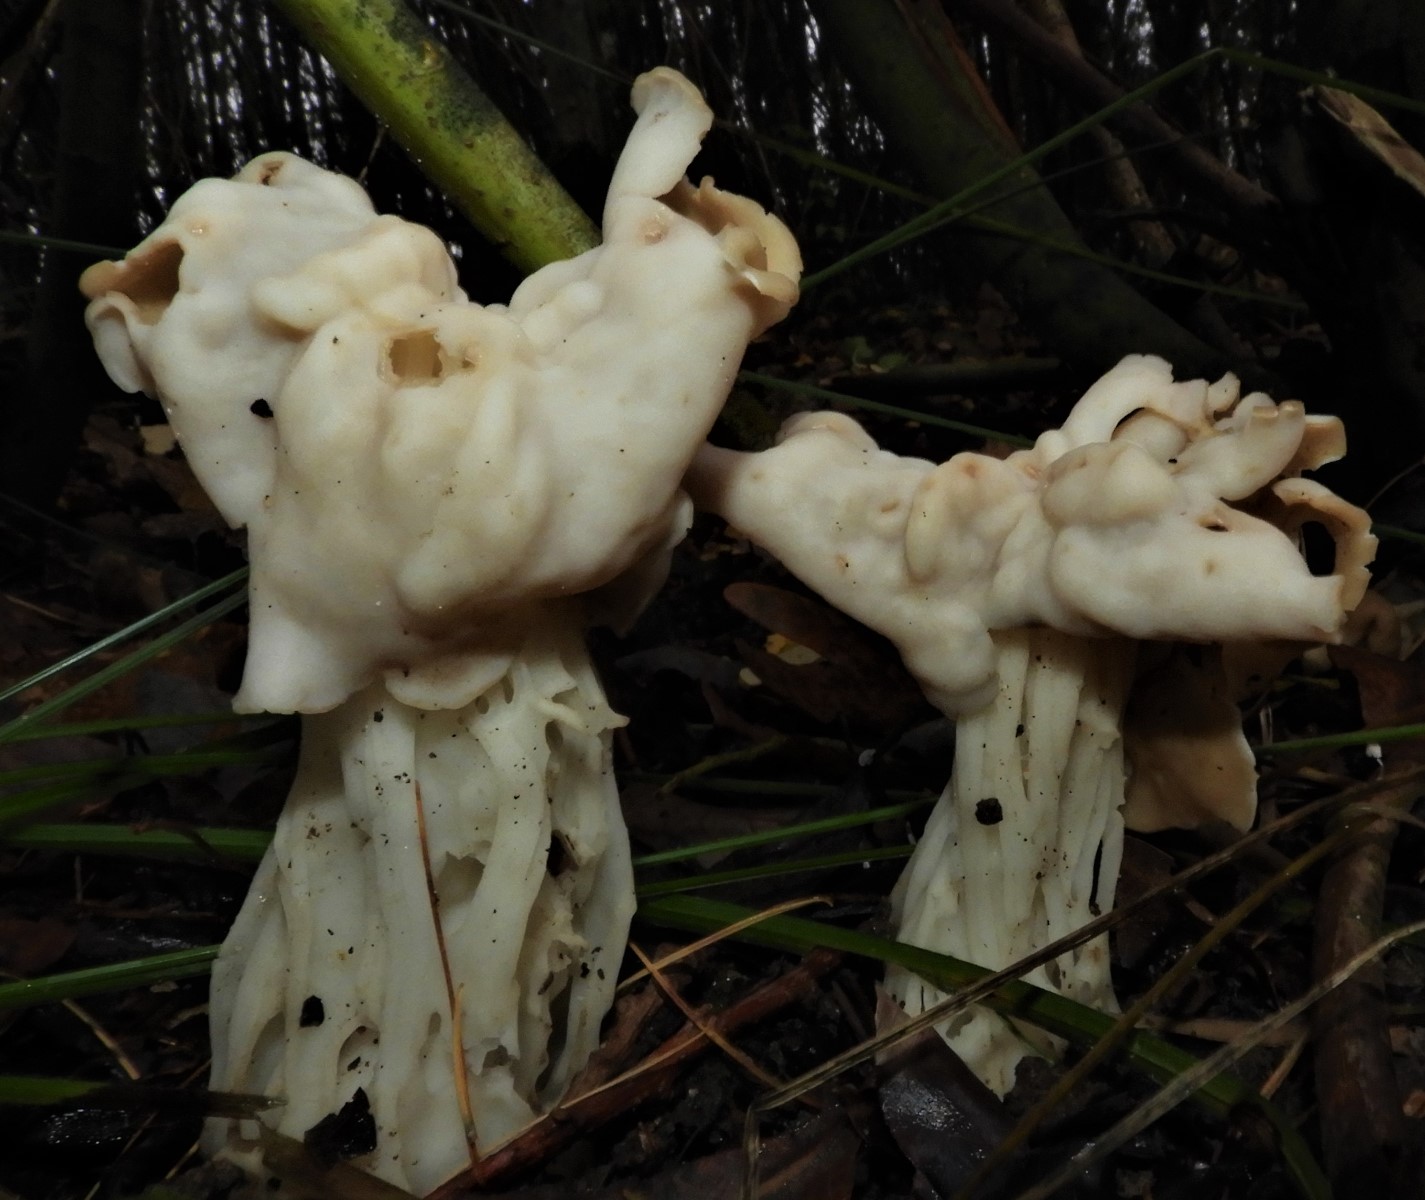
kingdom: Fungi
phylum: Ascomycota
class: Pezizomycetes
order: Pezizales
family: Helvellaceae
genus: Helvella
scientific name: Helvella crispa
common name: kruset foldhat
